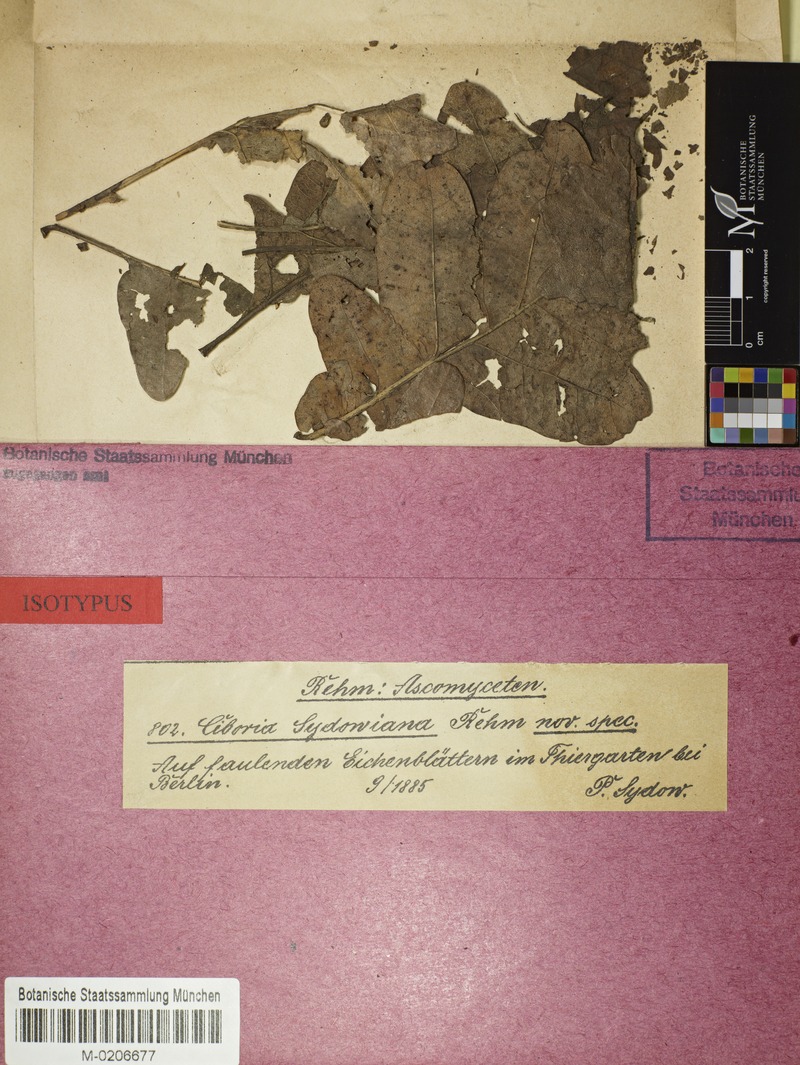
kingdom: Fungi
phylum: Ascomycota
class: Leotiomycetes
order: Helotiales
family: Rutstroemiaceae
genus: Rutstroemia
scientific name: Rutstroemia sydowiana
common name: Oakleaf cup
